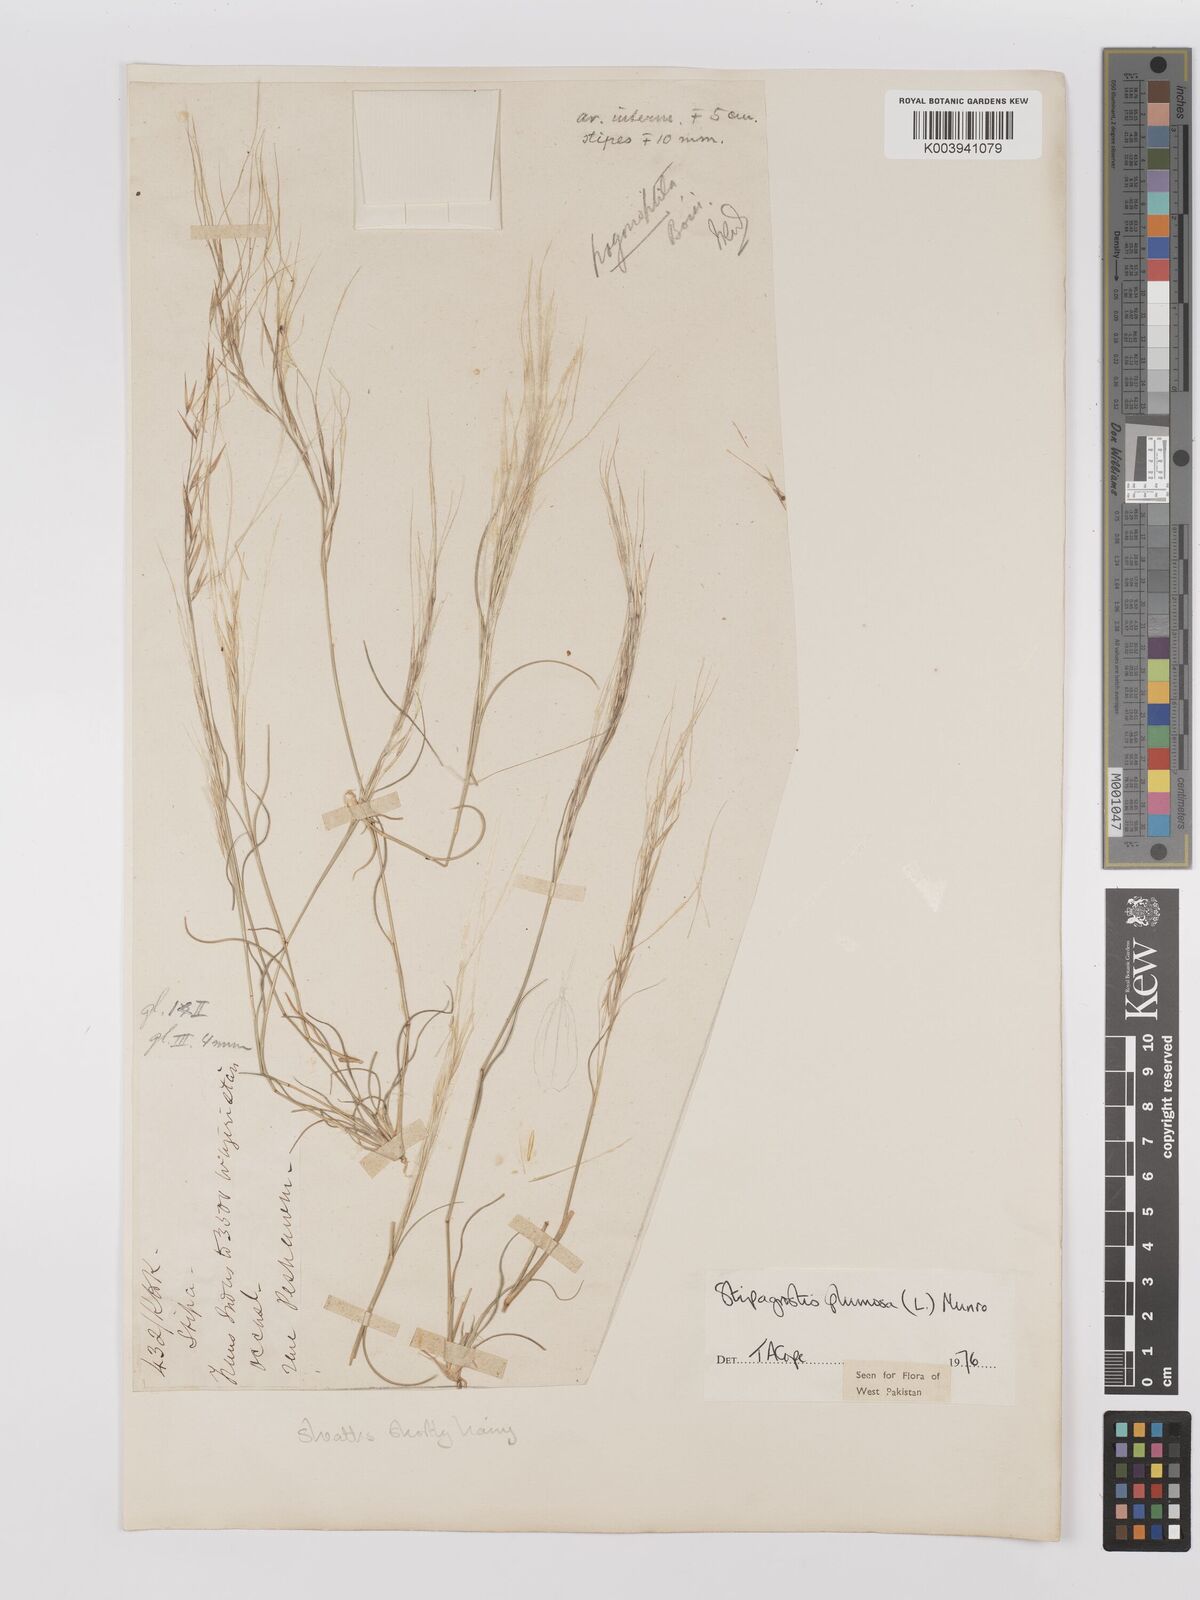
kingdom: Plantae
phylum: Tracheophyta
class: Liliopsida
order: Poales
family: Poaceae
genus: Stipagrostis
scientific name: Stipagrostis plumosa
